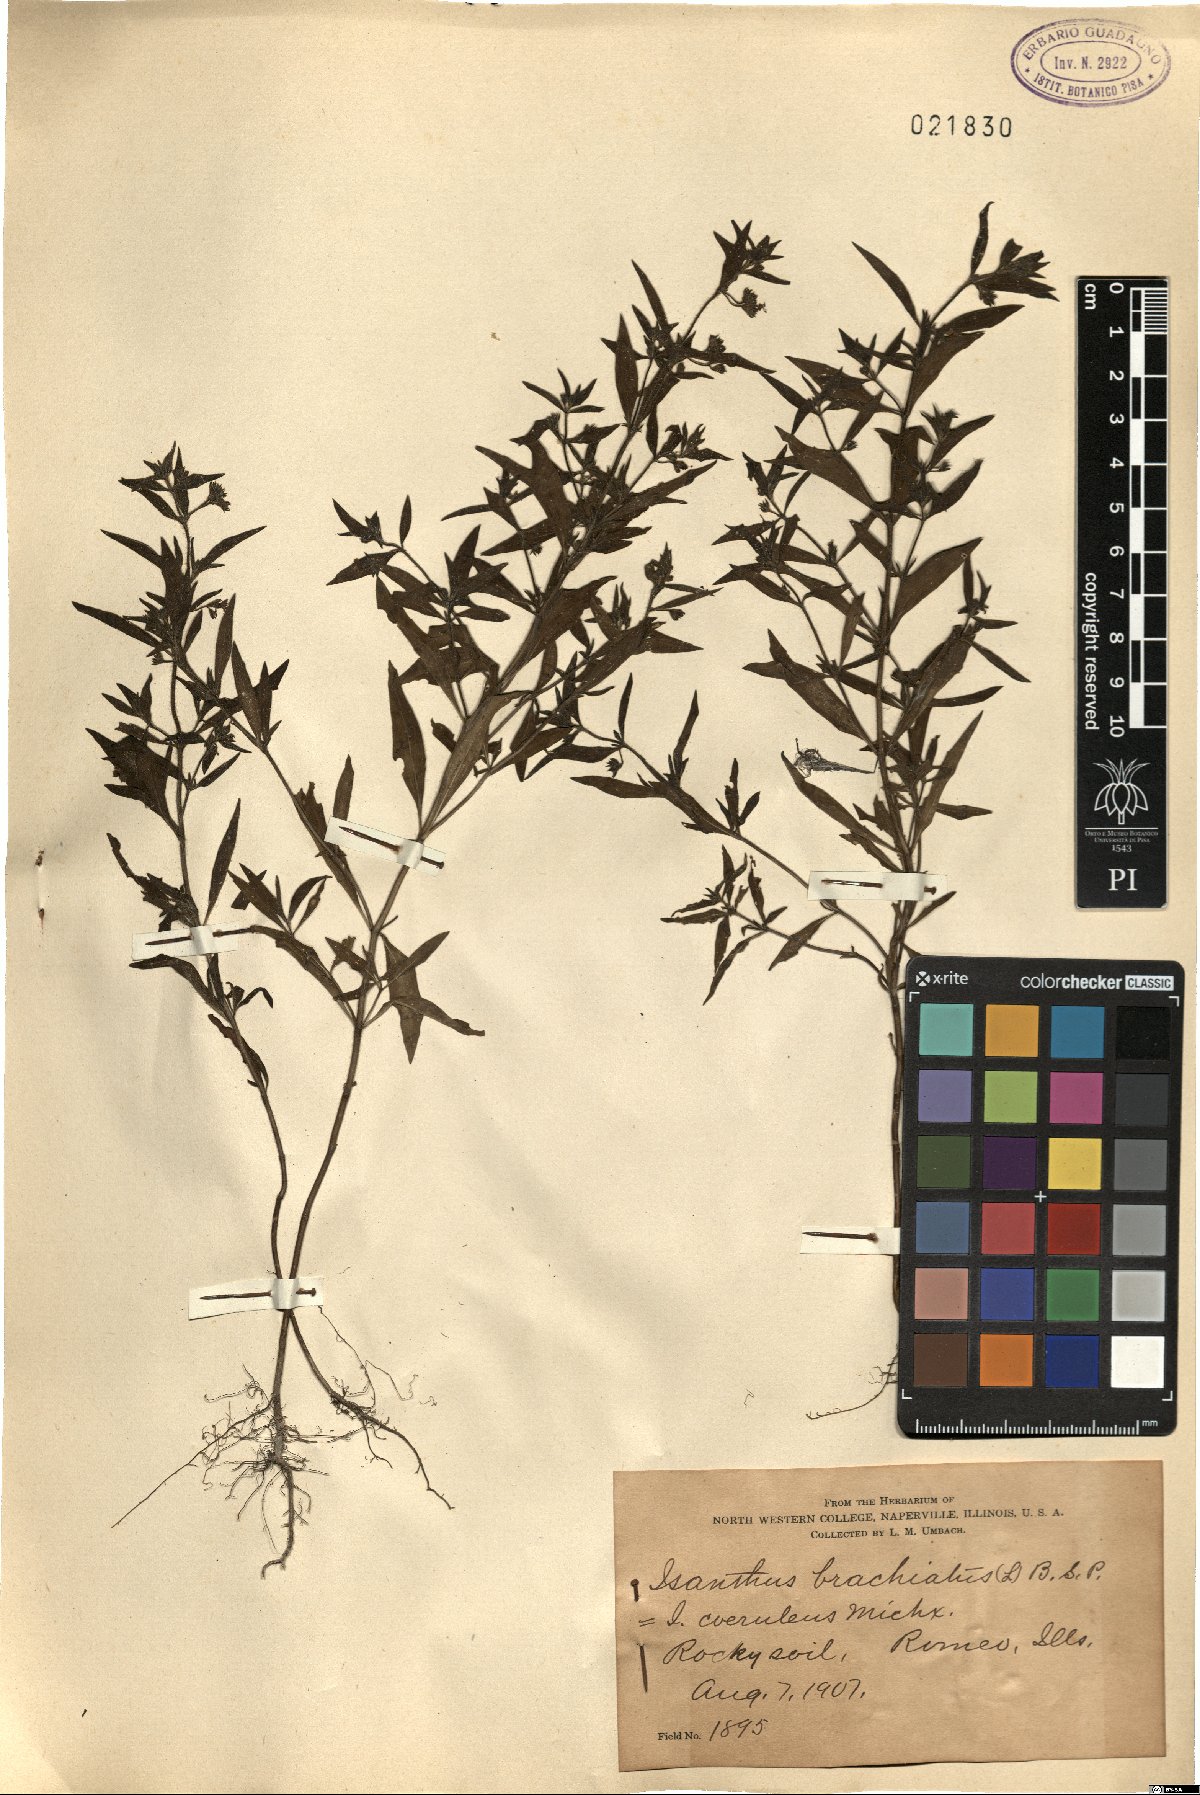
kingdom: Plantae
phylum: Tracheophyta
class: Magnoliopsida
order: Lamiales
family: Lamiaceae
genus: Trichostema
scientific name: Trichostema brachiatum
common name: False pennyroyal
